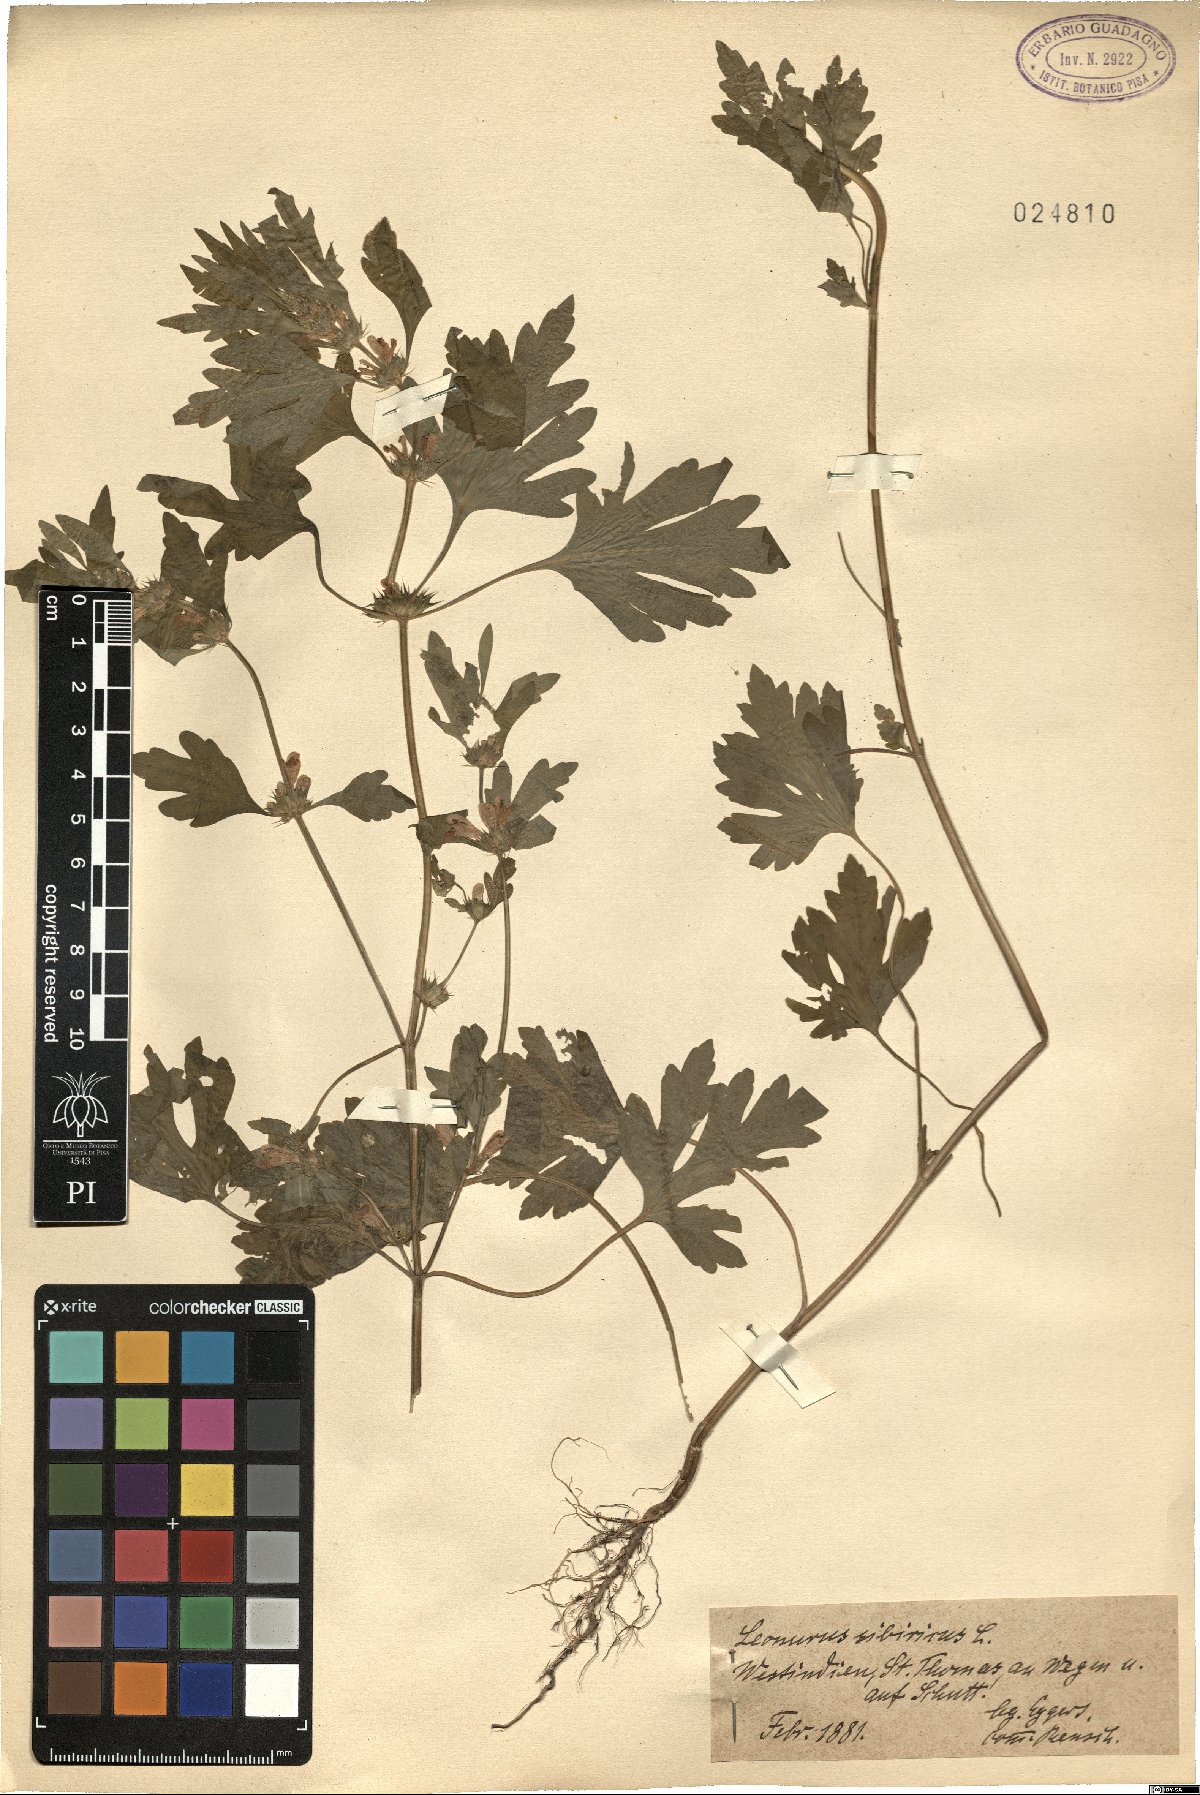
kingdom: Plantae
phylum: Tracheophyta
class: Magnoliopsida
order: Lamiales
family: Lamiaceae
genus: Leonurus
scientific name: Leonurus sibiricus
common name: Honeyweed
